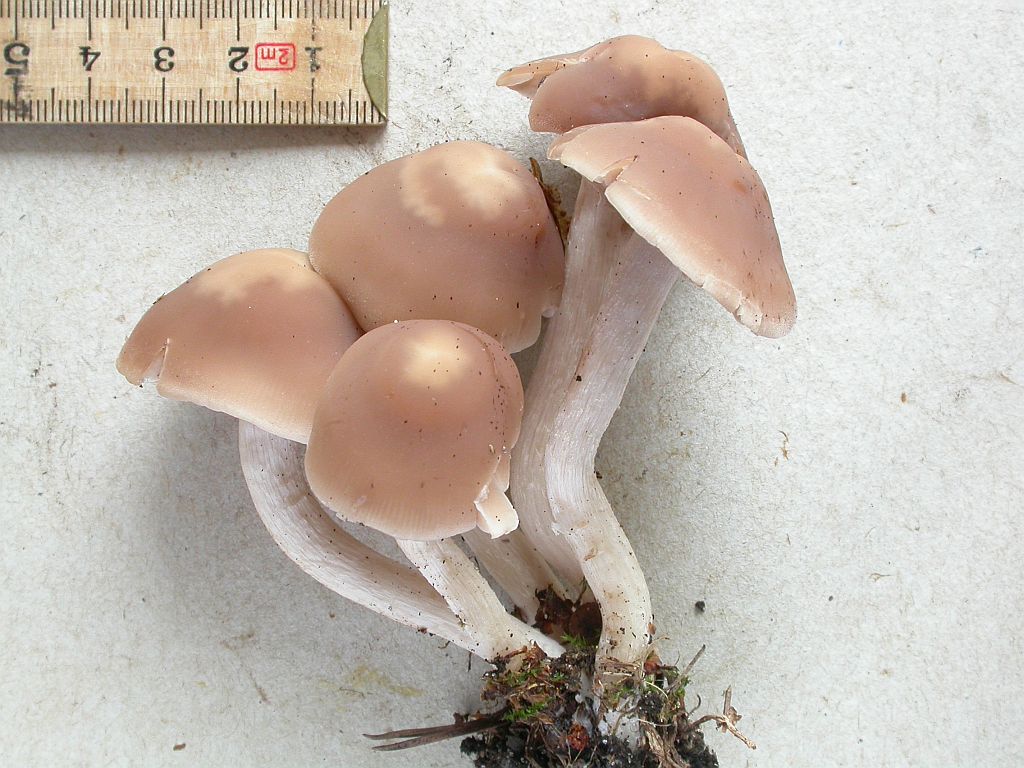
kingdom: Fungi
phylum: Basidiomycota
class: Agaricomycetes
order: Agaricales
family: Psathyrellaceae
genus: Homophron
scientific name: Homophron spadiceum
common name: daddelbrun mørkhat
